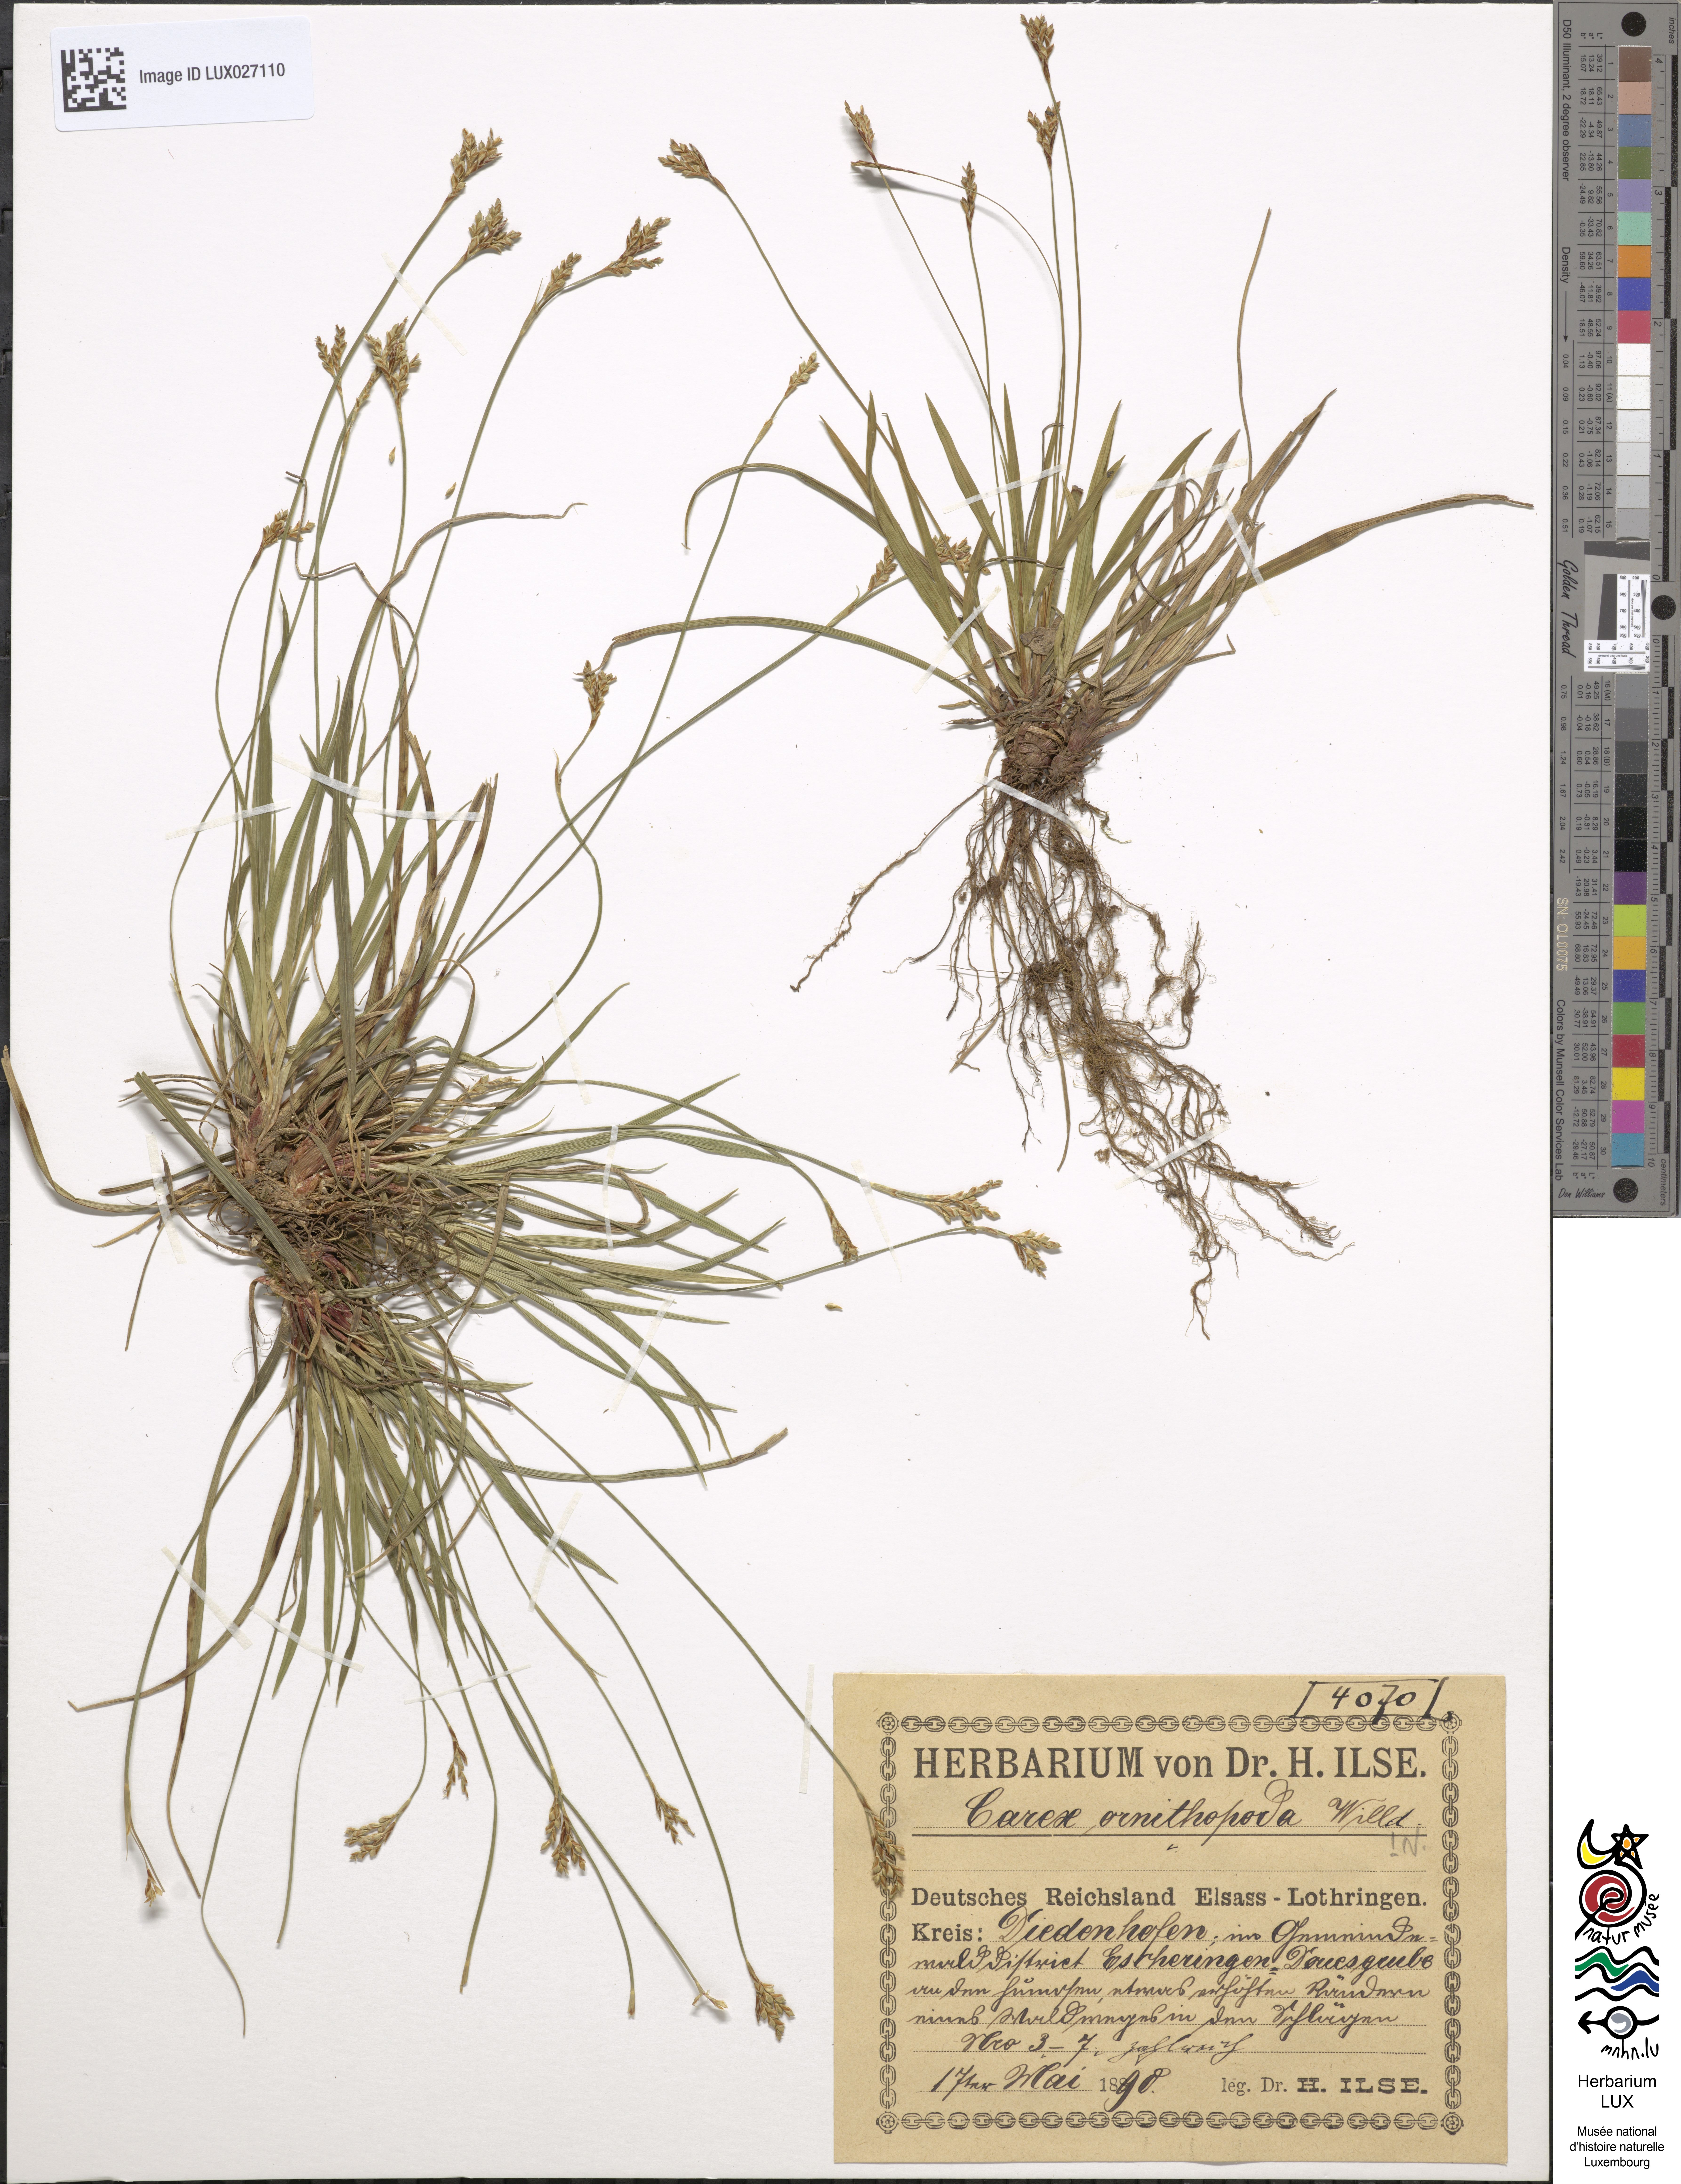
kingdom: Plantae
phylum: Tracheophyta
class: Liliopsida
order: Poales
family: Cyperaceae
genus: Carex
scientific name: Carex ornithopoda
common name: Bird's-foot sedge
